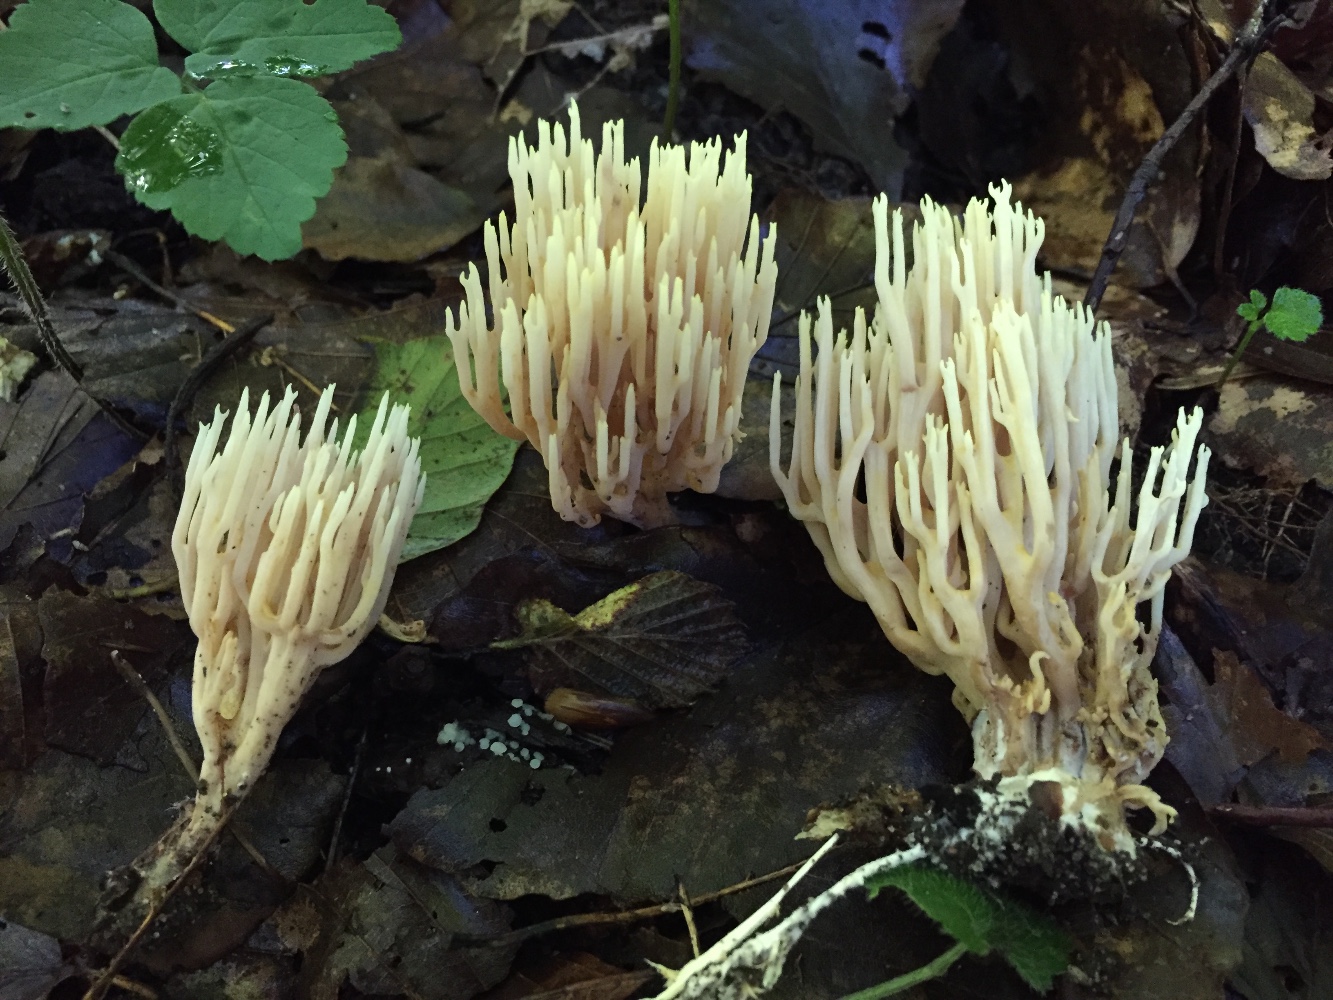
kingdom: Fungi
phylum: Basidiomycota
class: Agaricomycetes
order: Gomphales
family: Gomphaceae
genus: Ramaria
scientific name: Ramaria stricta
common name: rank koralsvamp
